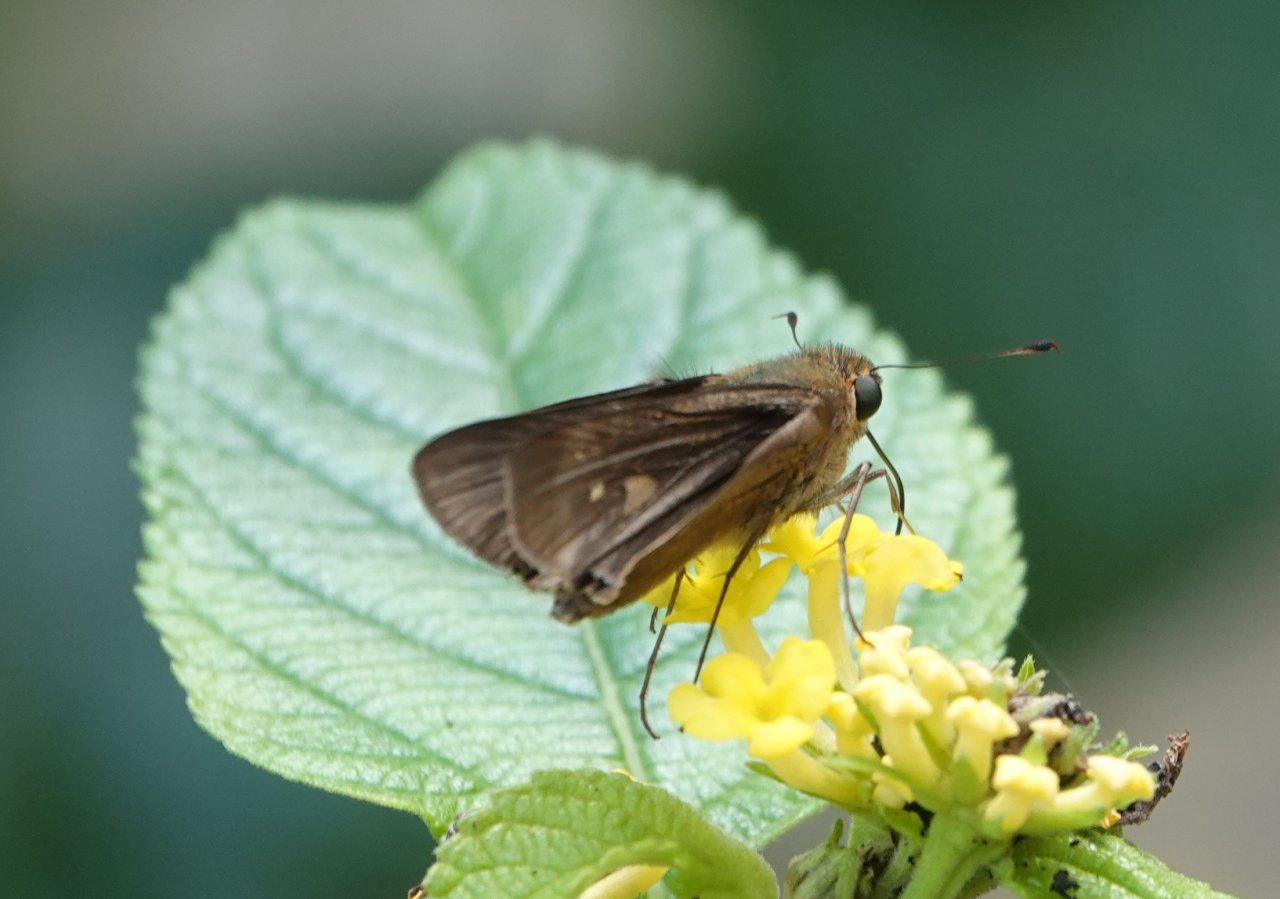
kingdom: Animalia
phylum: Arthropoda
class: Insecta
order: Lepidoptera
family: Hesperiidae
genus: Panoquina
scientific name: Panoquina ocola
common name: Ocola Skipper
